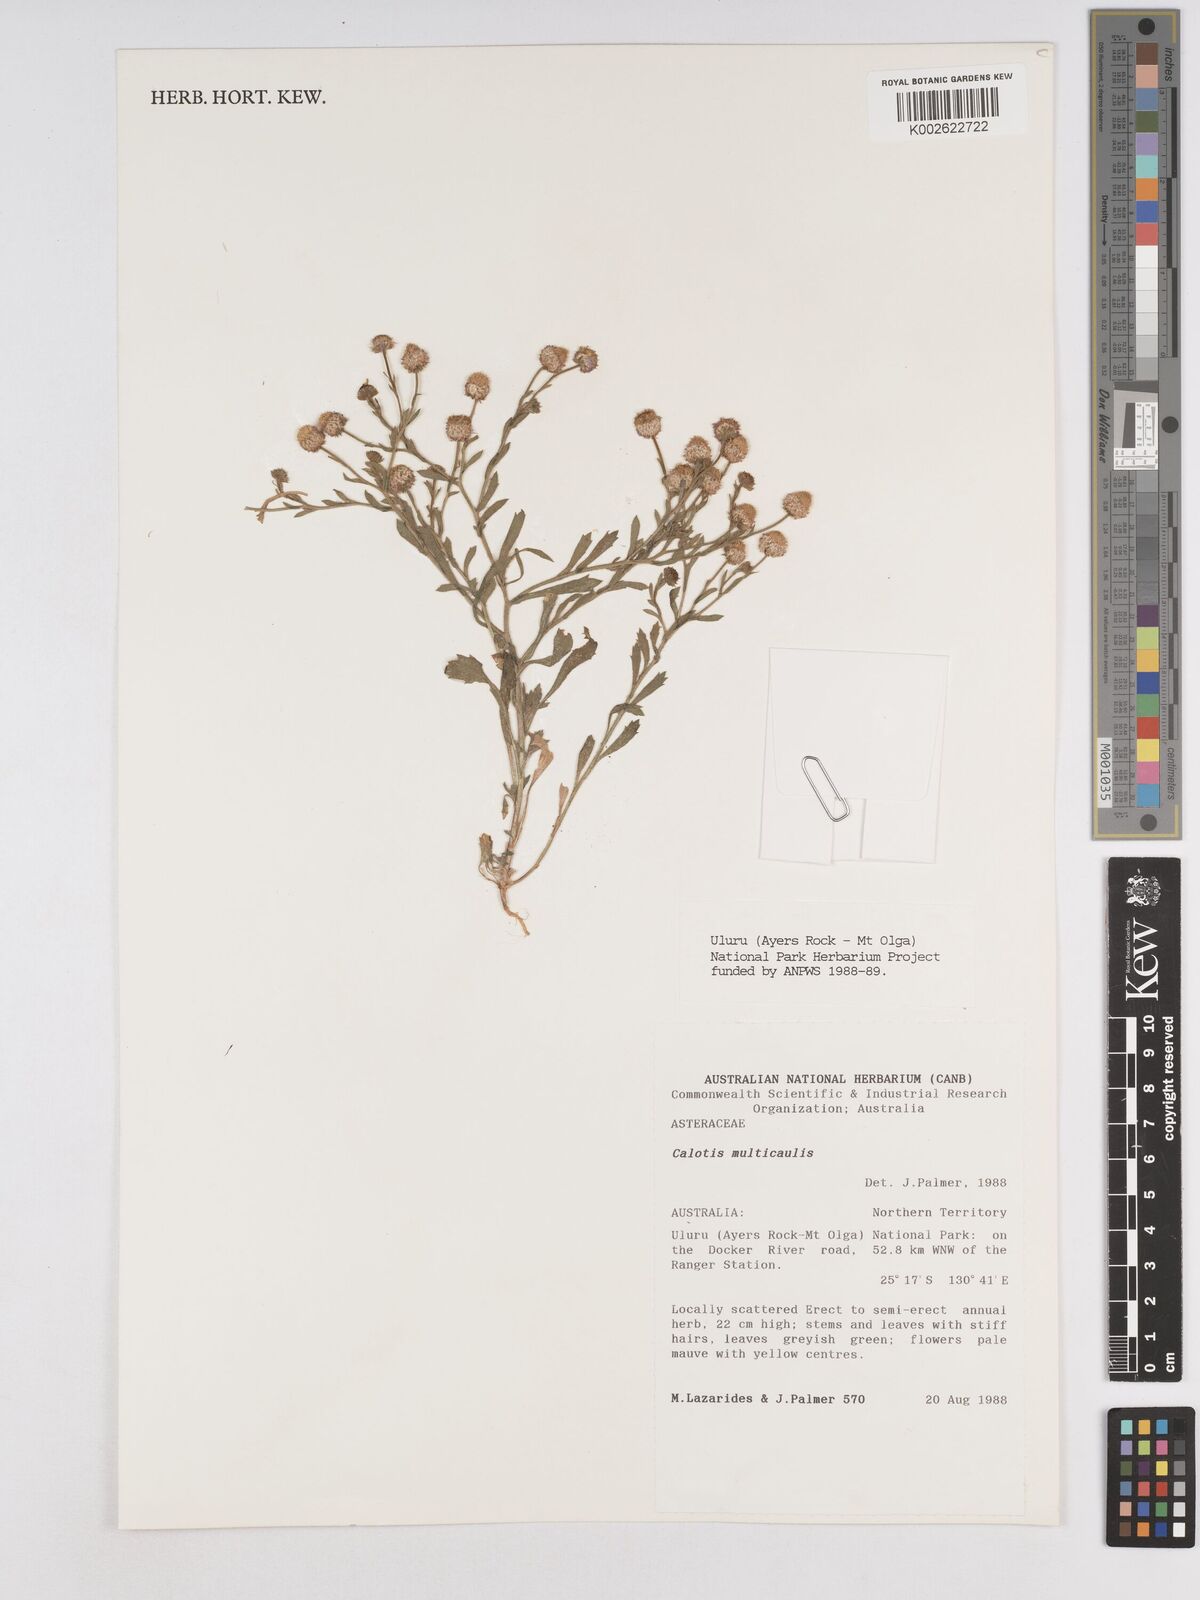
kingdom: Plantae
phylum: Tracheophyta
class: Magnoliopsida
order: Asterales
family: Asteraceae
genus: Calotis
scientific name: Calotis multicaulis
